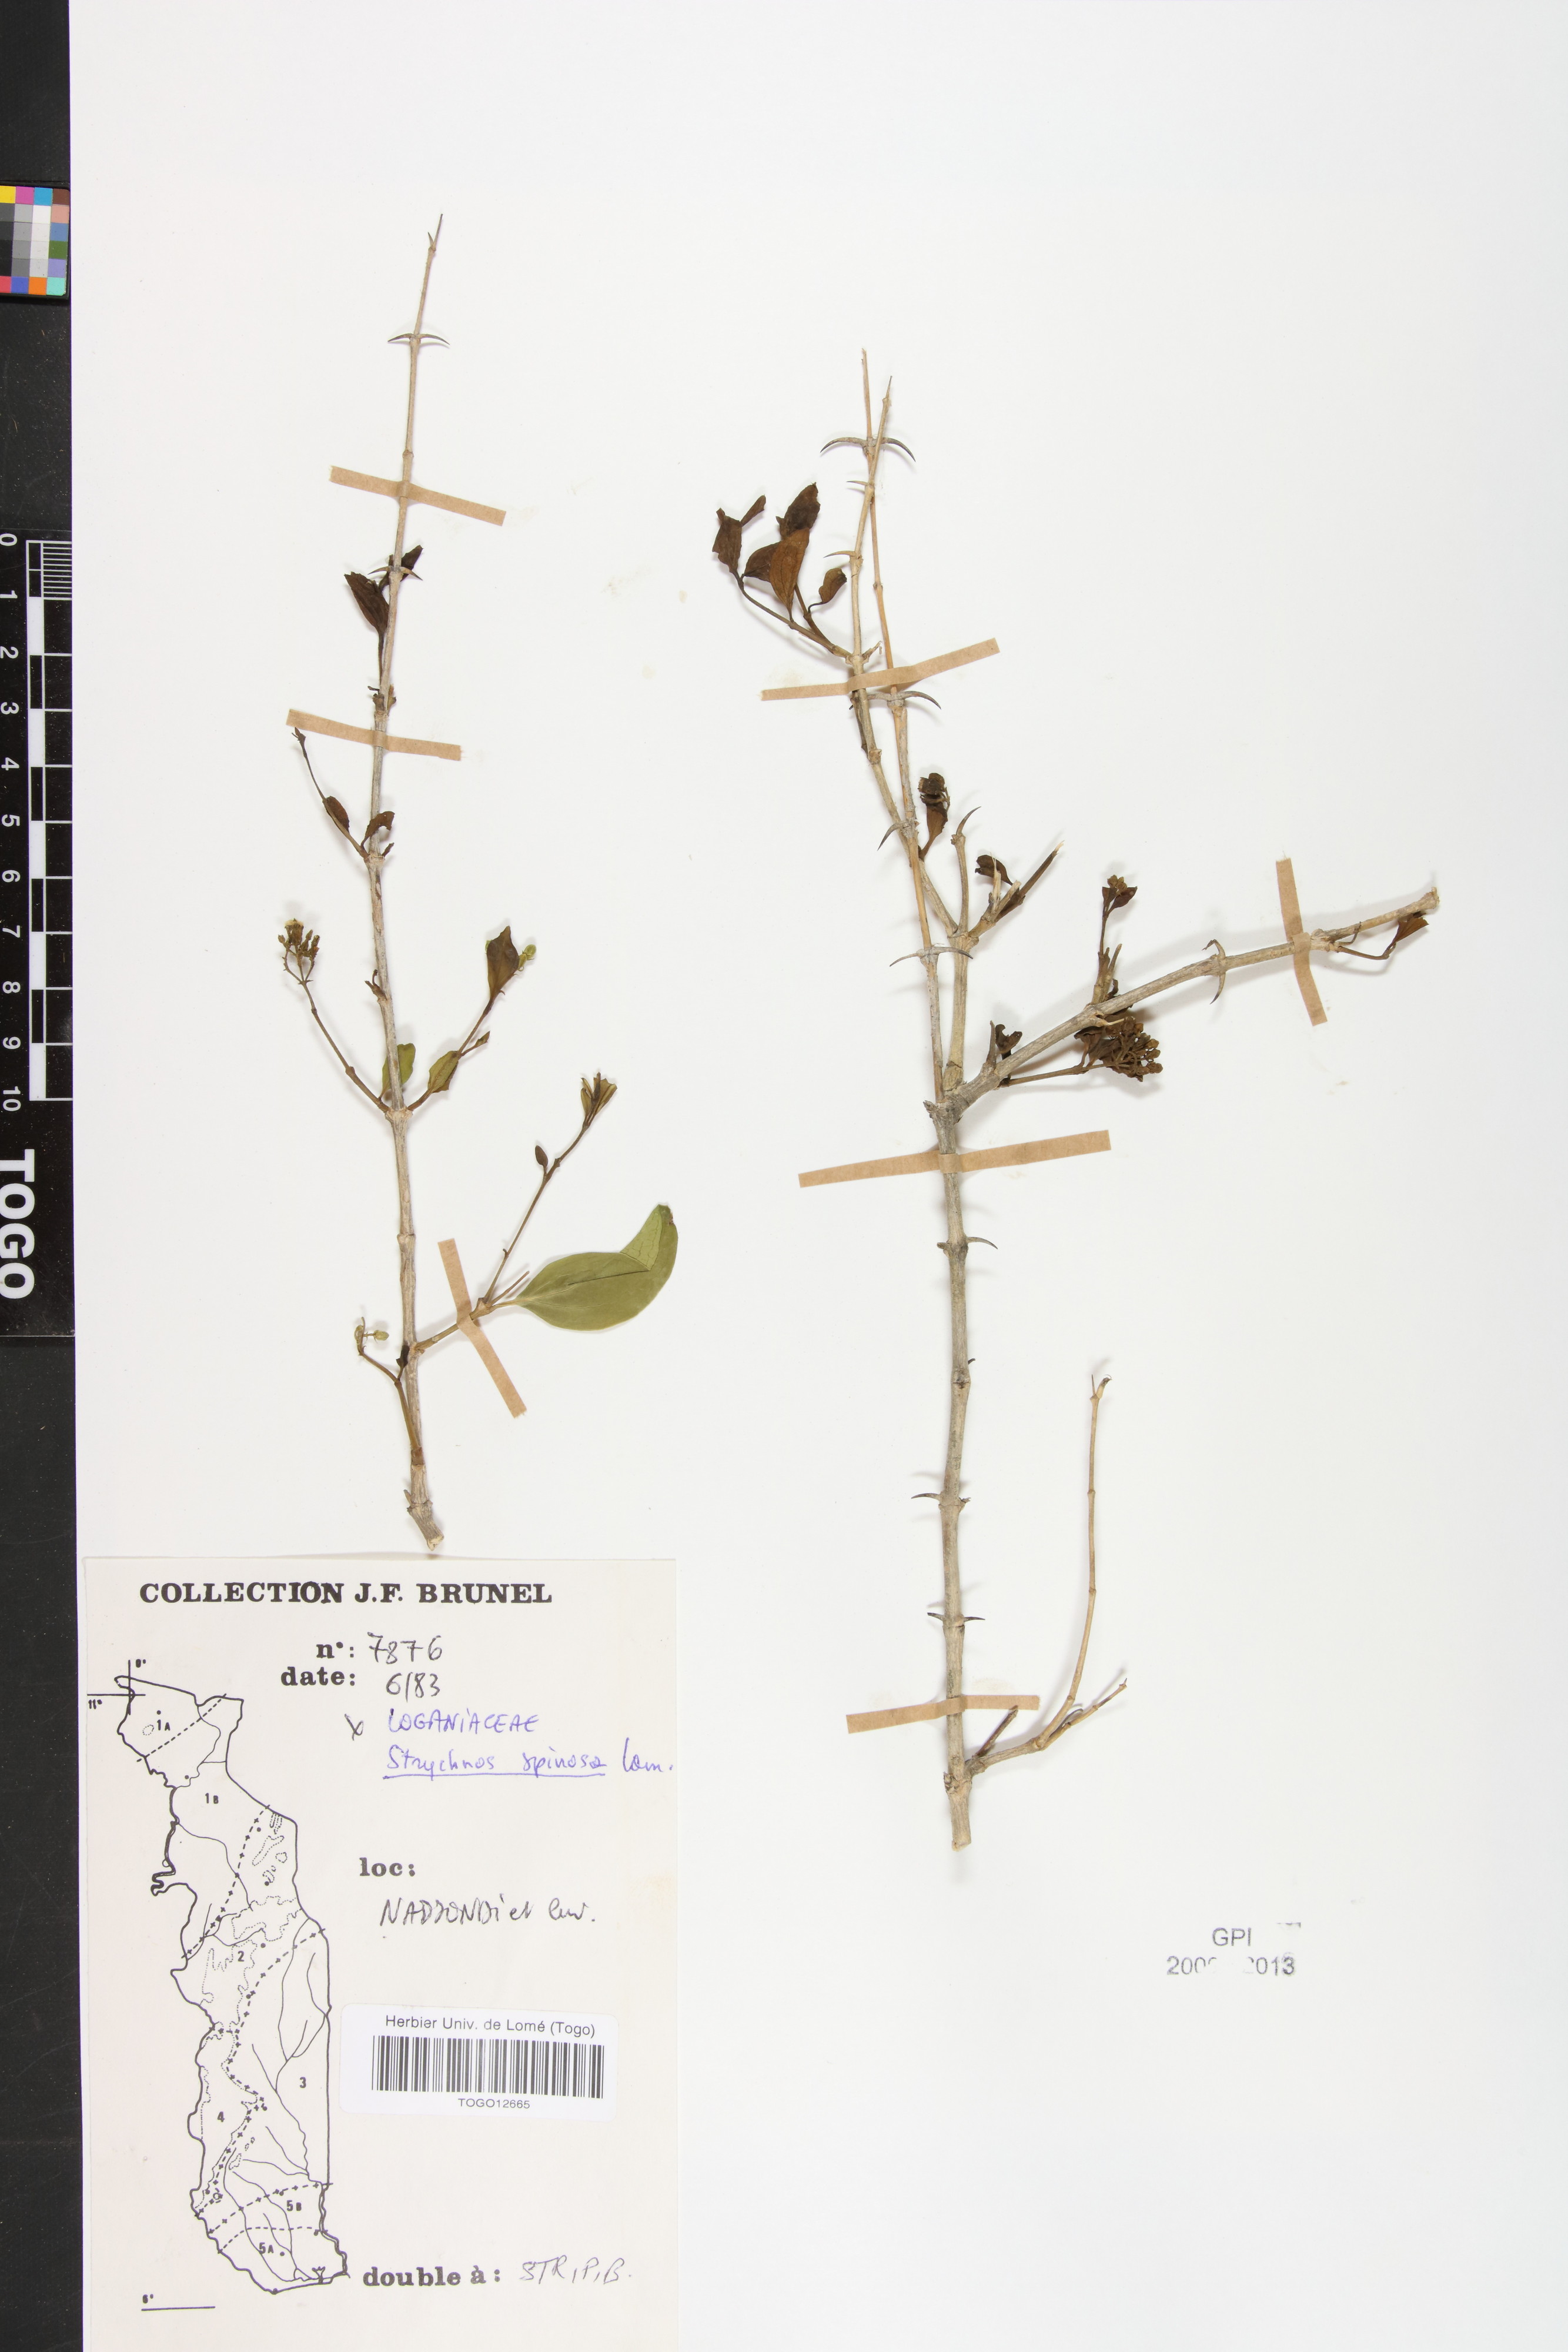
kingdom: Plantae
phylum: Tracheophyta
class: Magnoliopsida
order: Gentianales
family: Loganiaceae
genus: Strychnos
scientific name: Strychnos spinosa
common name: Natal orange
